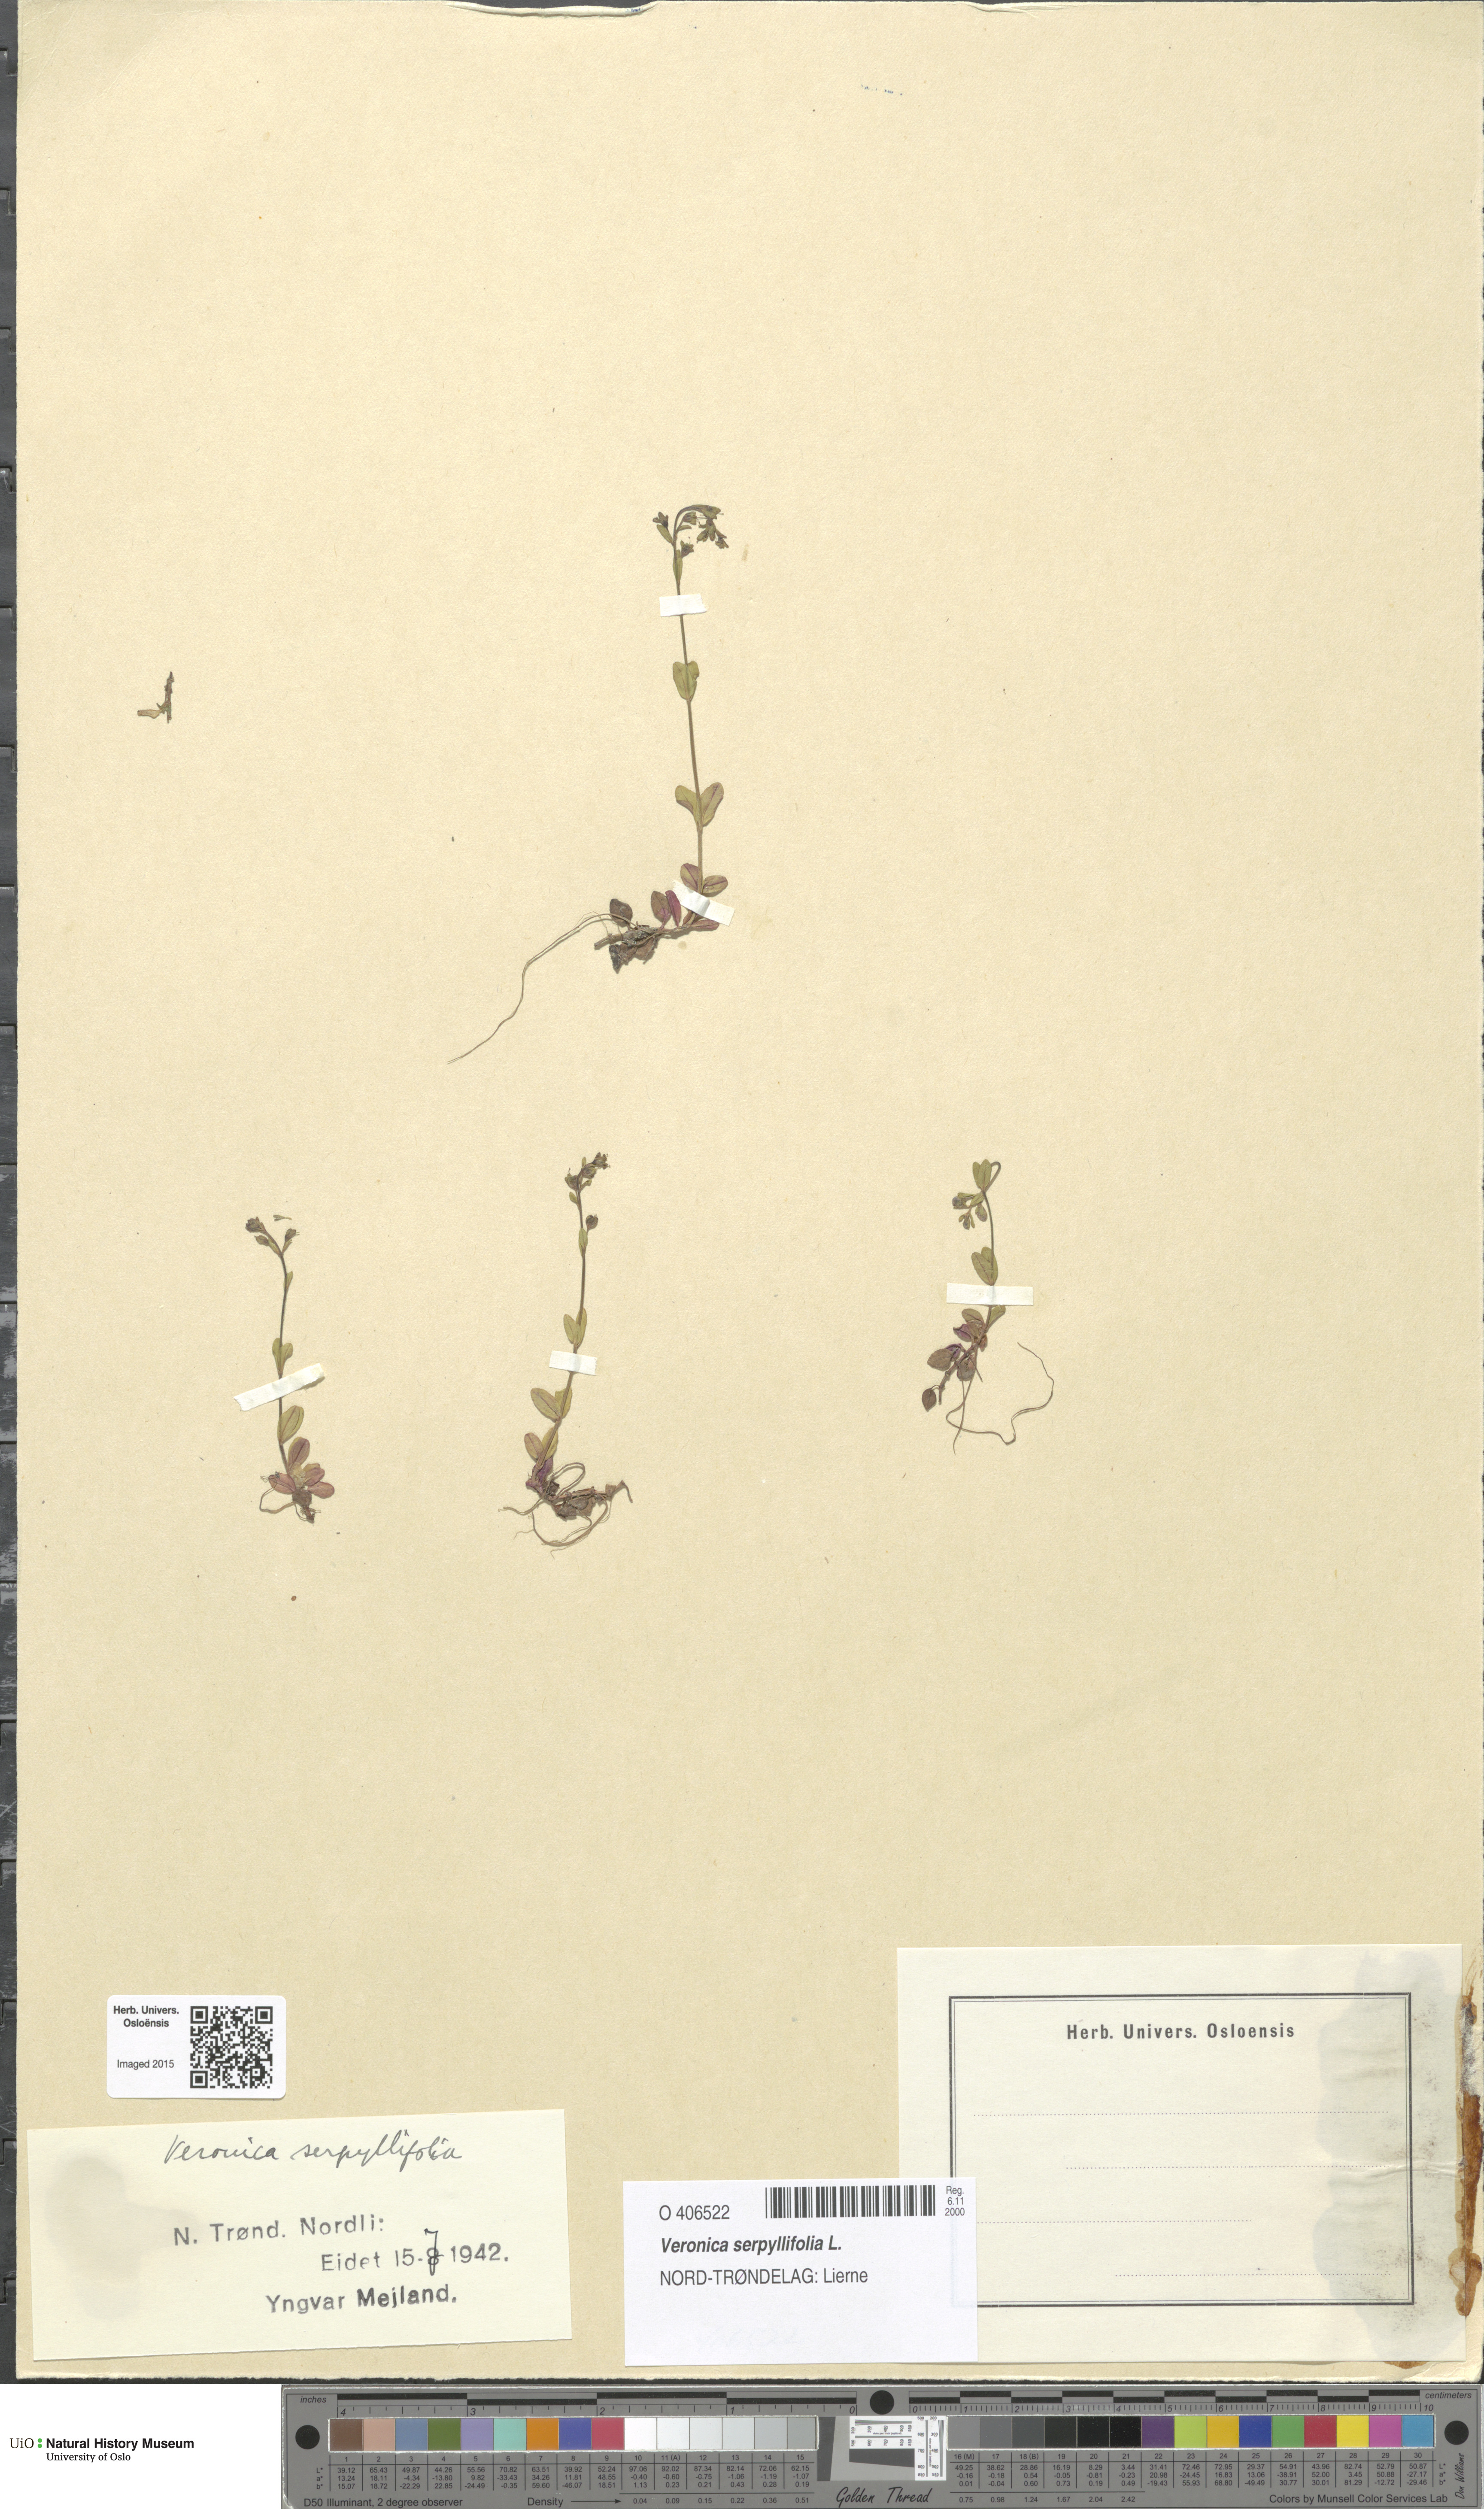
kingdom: Plantae
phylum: Tracheophyta
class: Magnoliopsida
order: Lamiales
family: Plantaginaceae
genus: Veronica
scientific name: Veronica serpyllifolia
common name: Thyme-leaved speedwell
